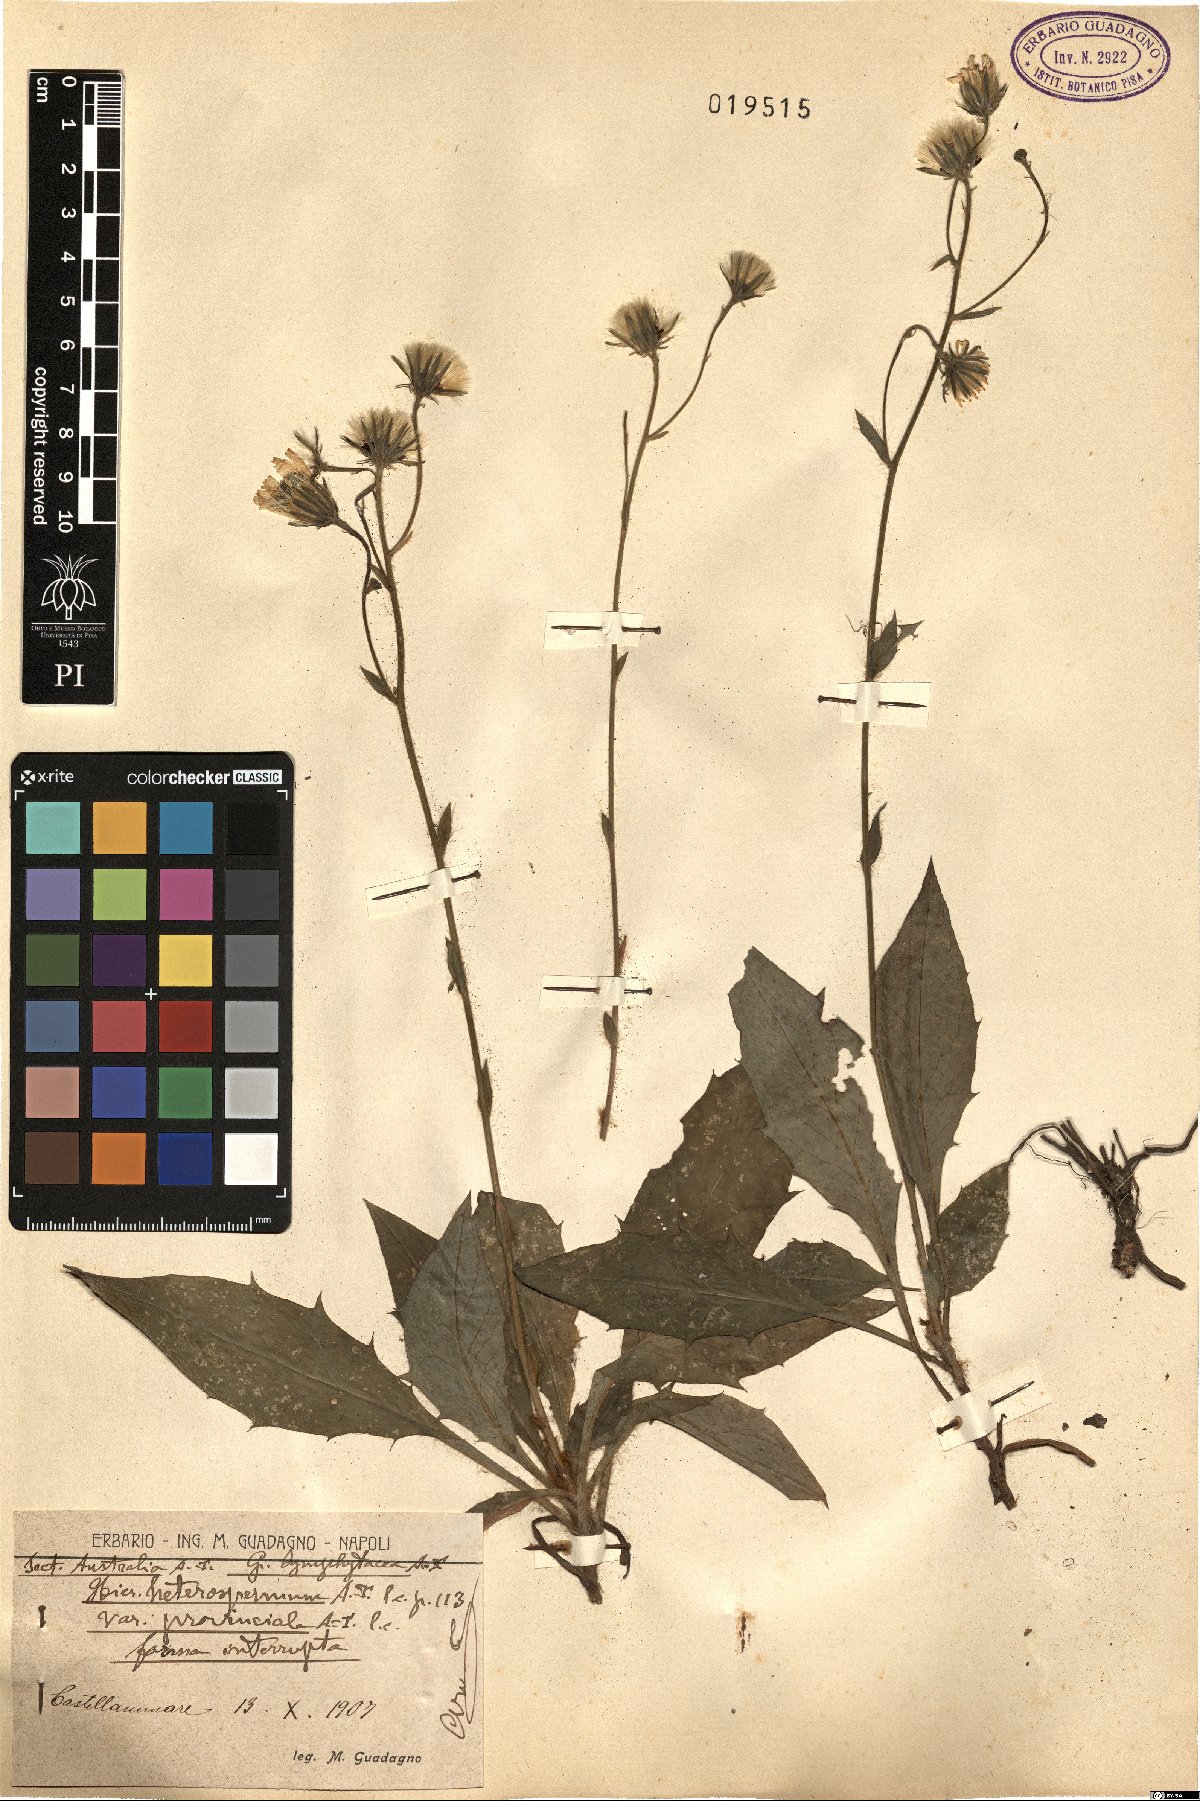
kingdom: Plantae
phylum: Tracheophyta
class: Magnoliopsida
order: Asterales
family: Asteraceae
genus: Hieracium
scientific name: Hieracium racemosum
